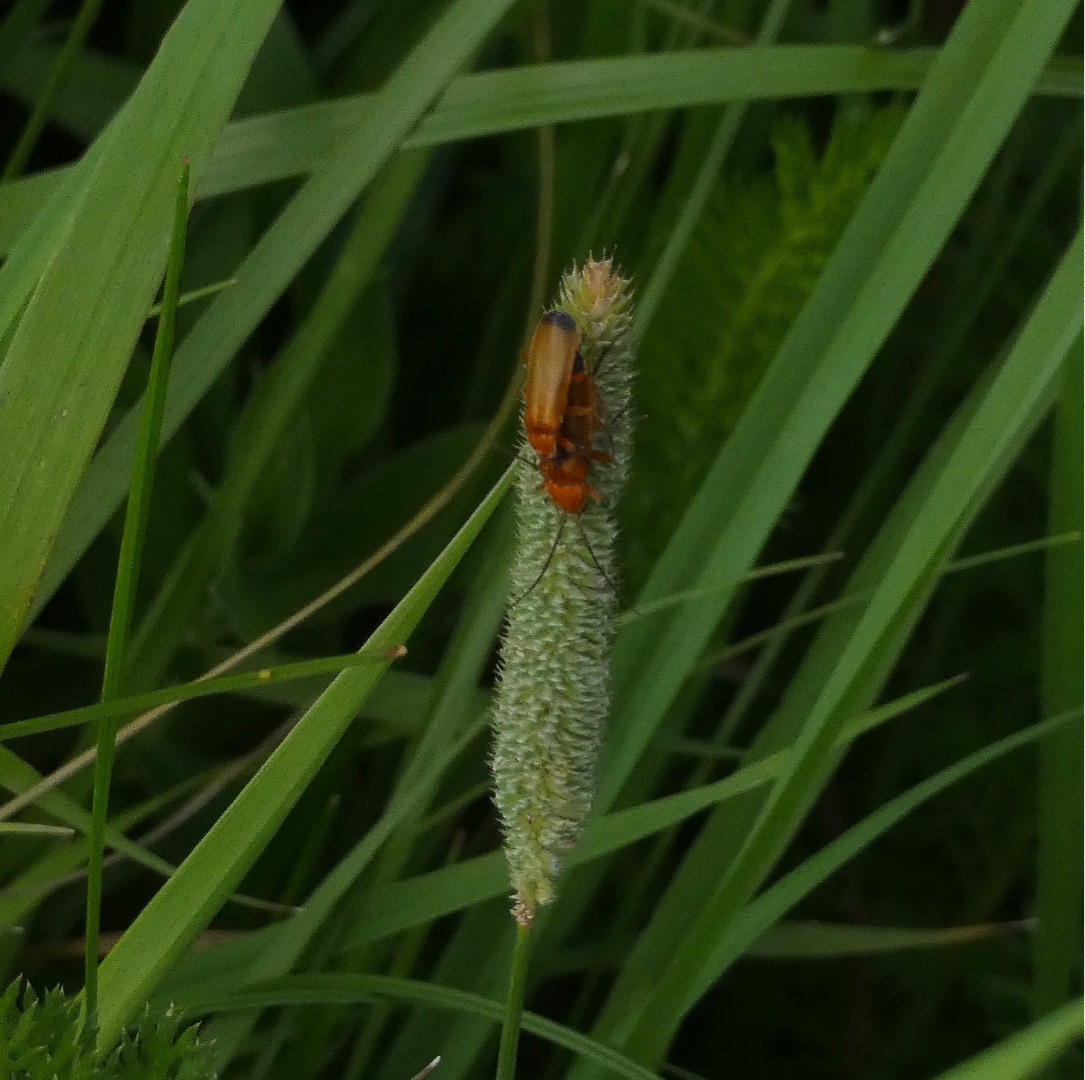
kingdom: Animalia
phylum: Arthropoda
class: Insecta
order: Coleoptera
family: Cantharidae
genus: Rhagonycha
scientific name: Rhagonycha fulva
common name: Præstebille
